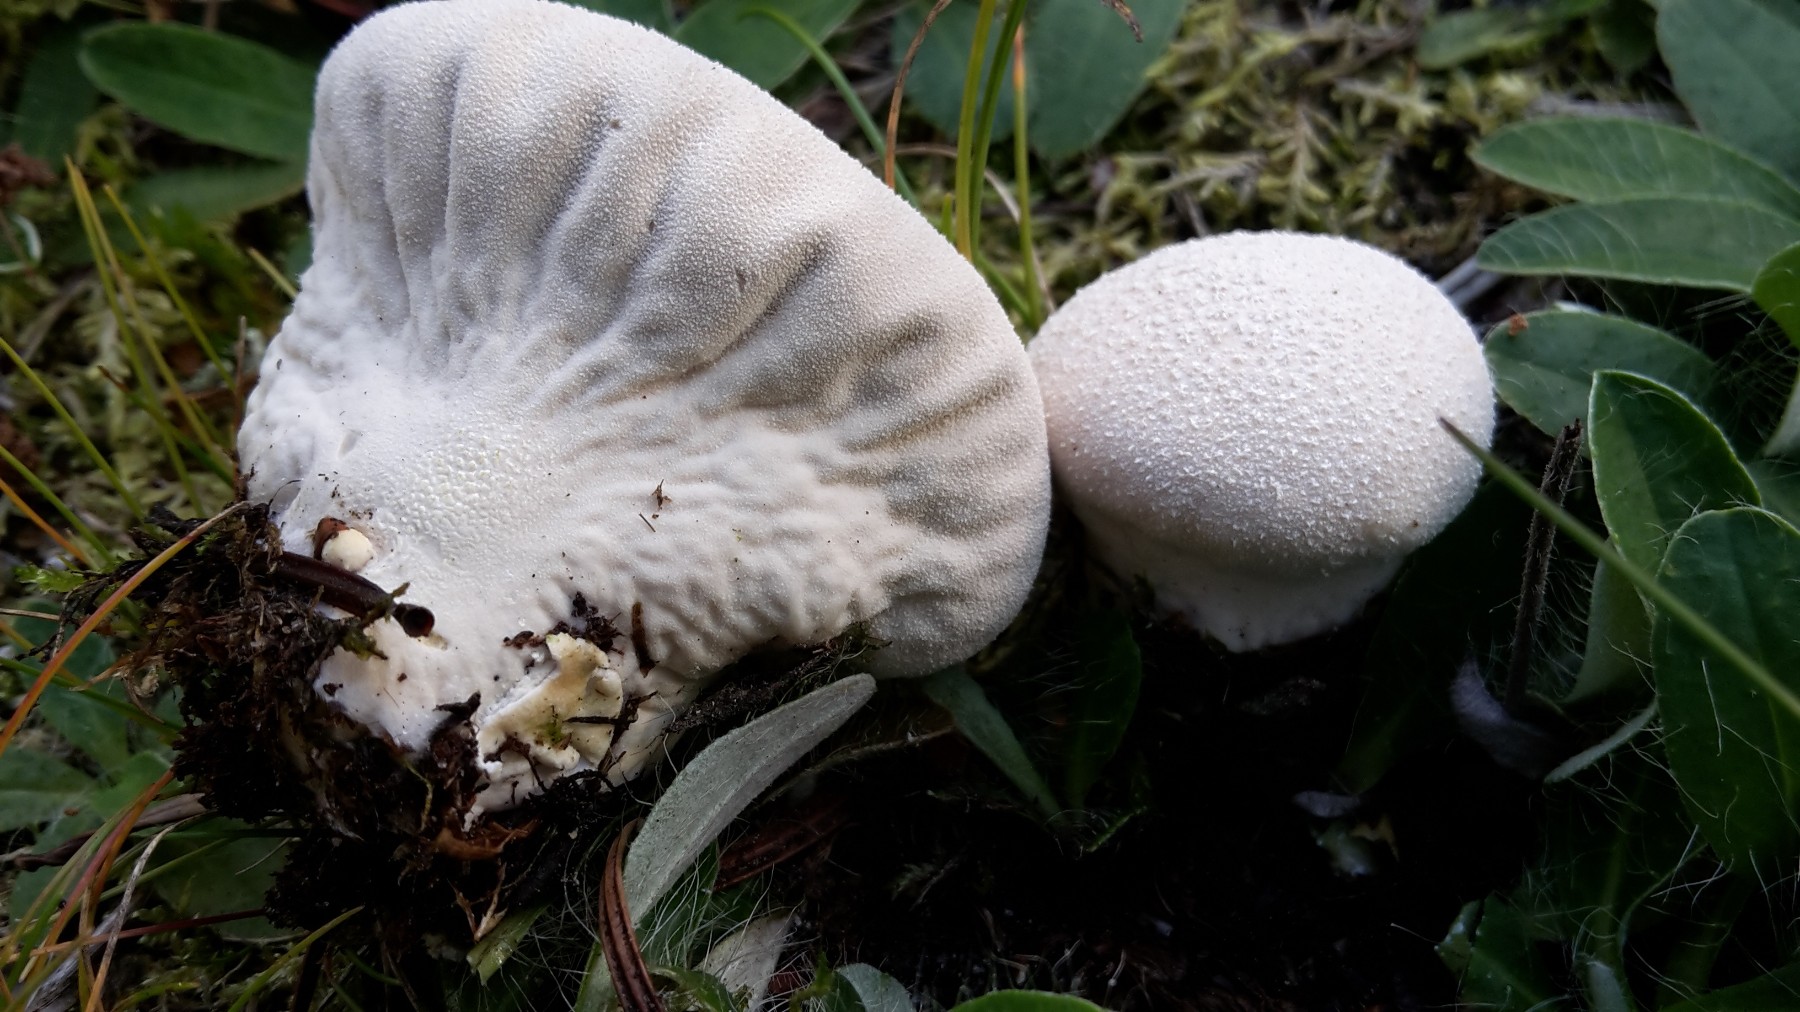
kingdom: Fungi
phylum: Basidiomycota
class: Agaricomycetes
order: Agaricales
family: Lycoperdaceae
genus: Lycoperdon
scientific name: Lycoperdon pratense
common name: flad støvbold
